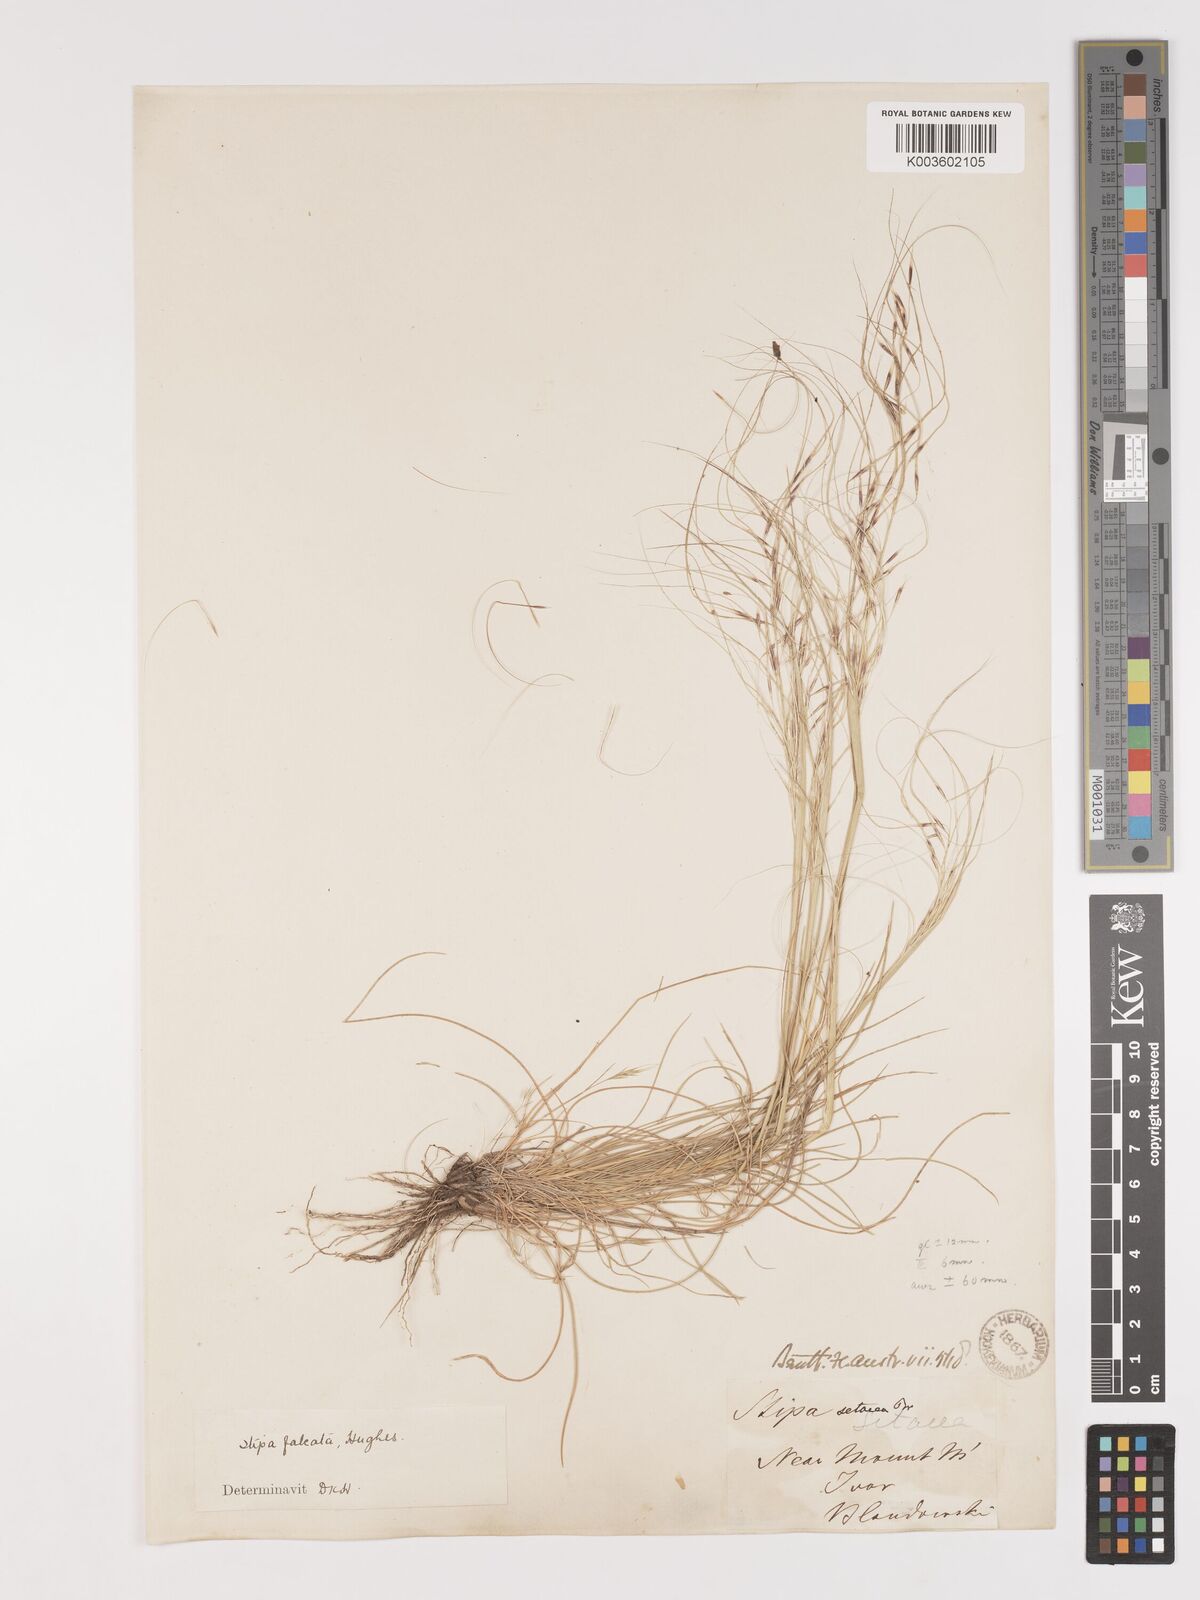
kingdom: Plantae
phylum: Tracheophyta
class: Liliopsida
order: Poales
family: Poaceae
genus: Austrostipa
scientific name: Austrostipa scabra
